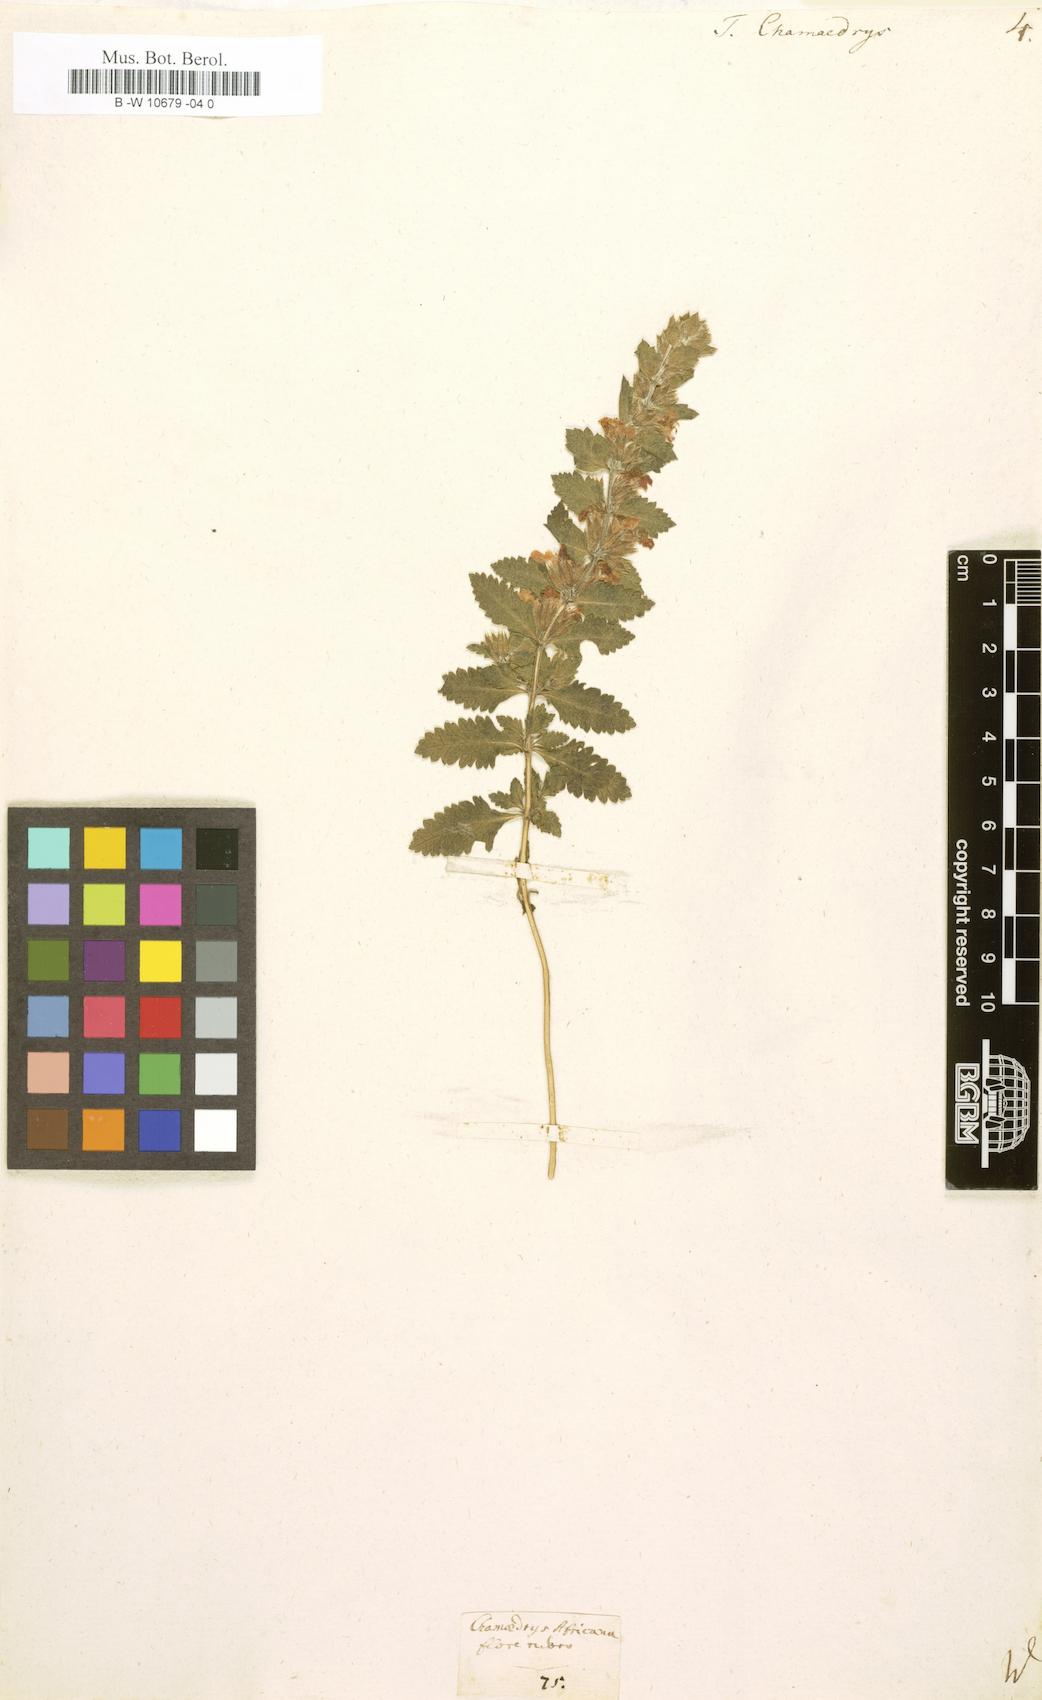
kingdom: Plantae
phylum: Tracheophyta
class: Magnoliopsida
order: Lamiales
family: Lamiaceae
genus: Teucrium
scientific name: Teucrium chamaedrys
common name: Wall germander
